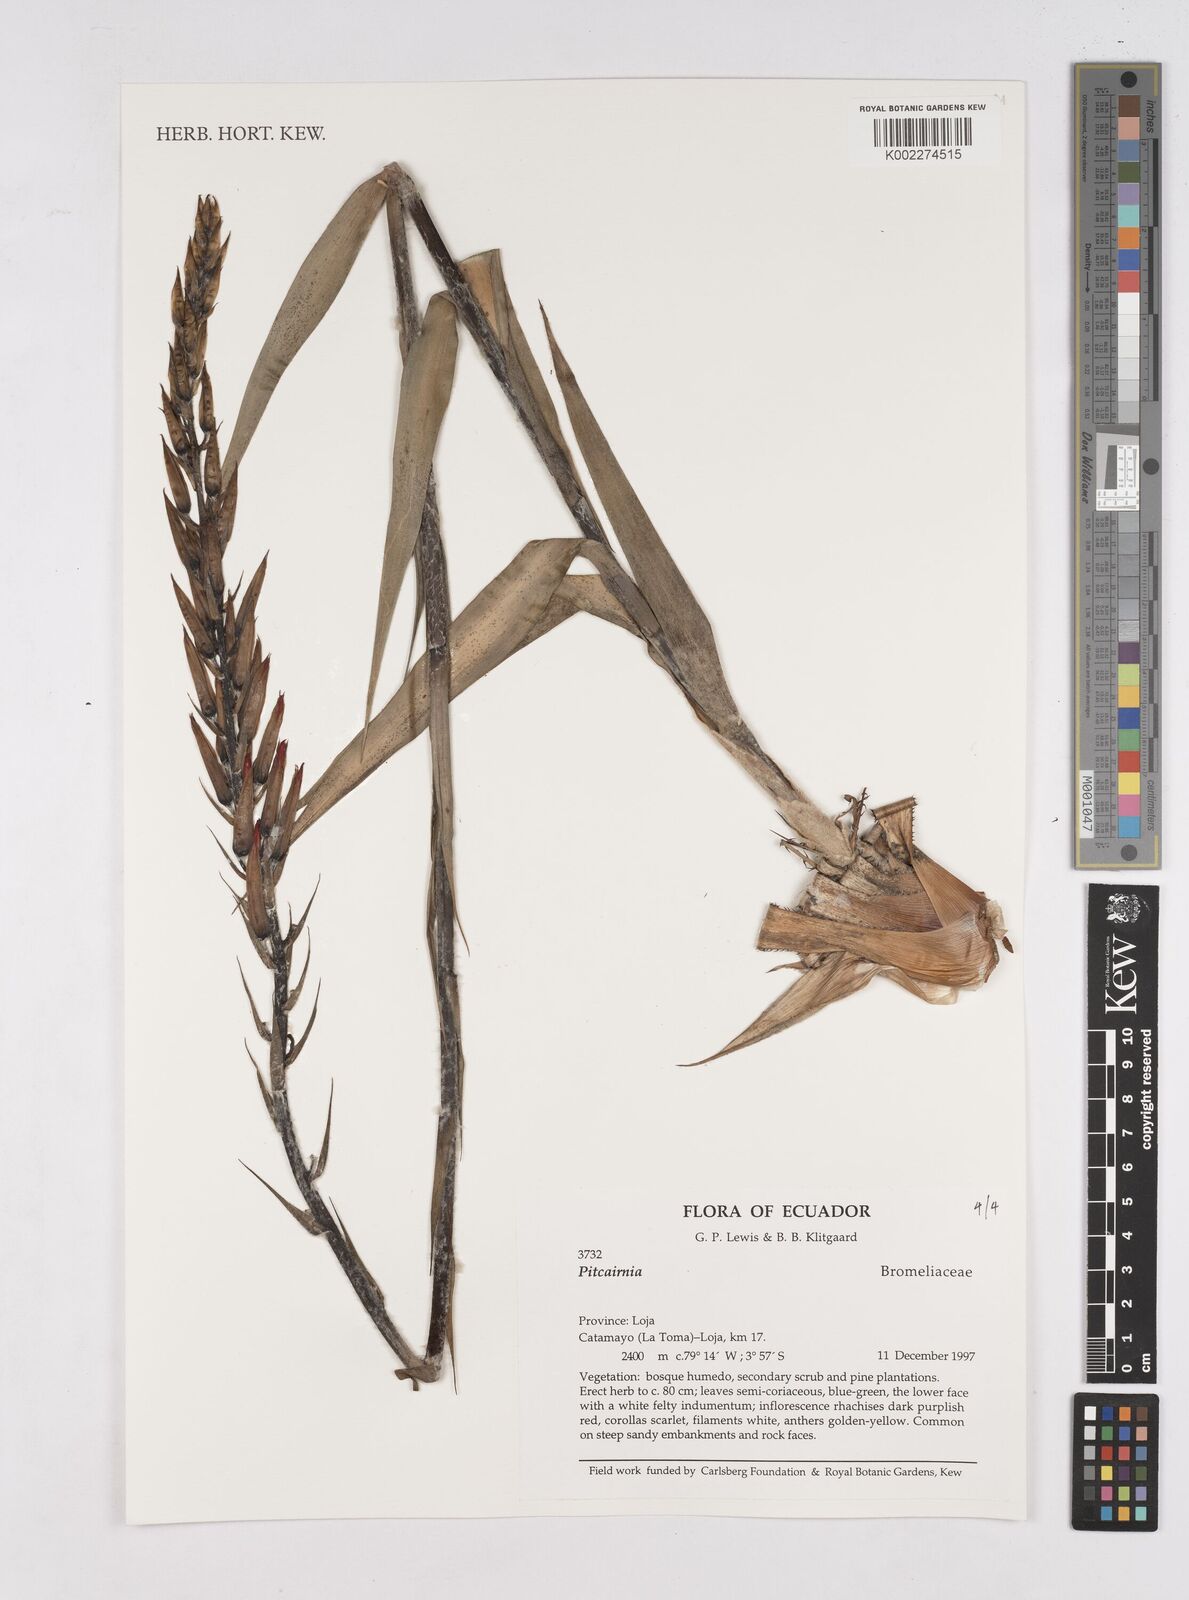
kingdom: Plantae
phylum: Tracheophyta
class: Liliopsida
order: Poales
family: Bromeliaceae
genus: Pitcairnia
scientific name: Pitcairnia
